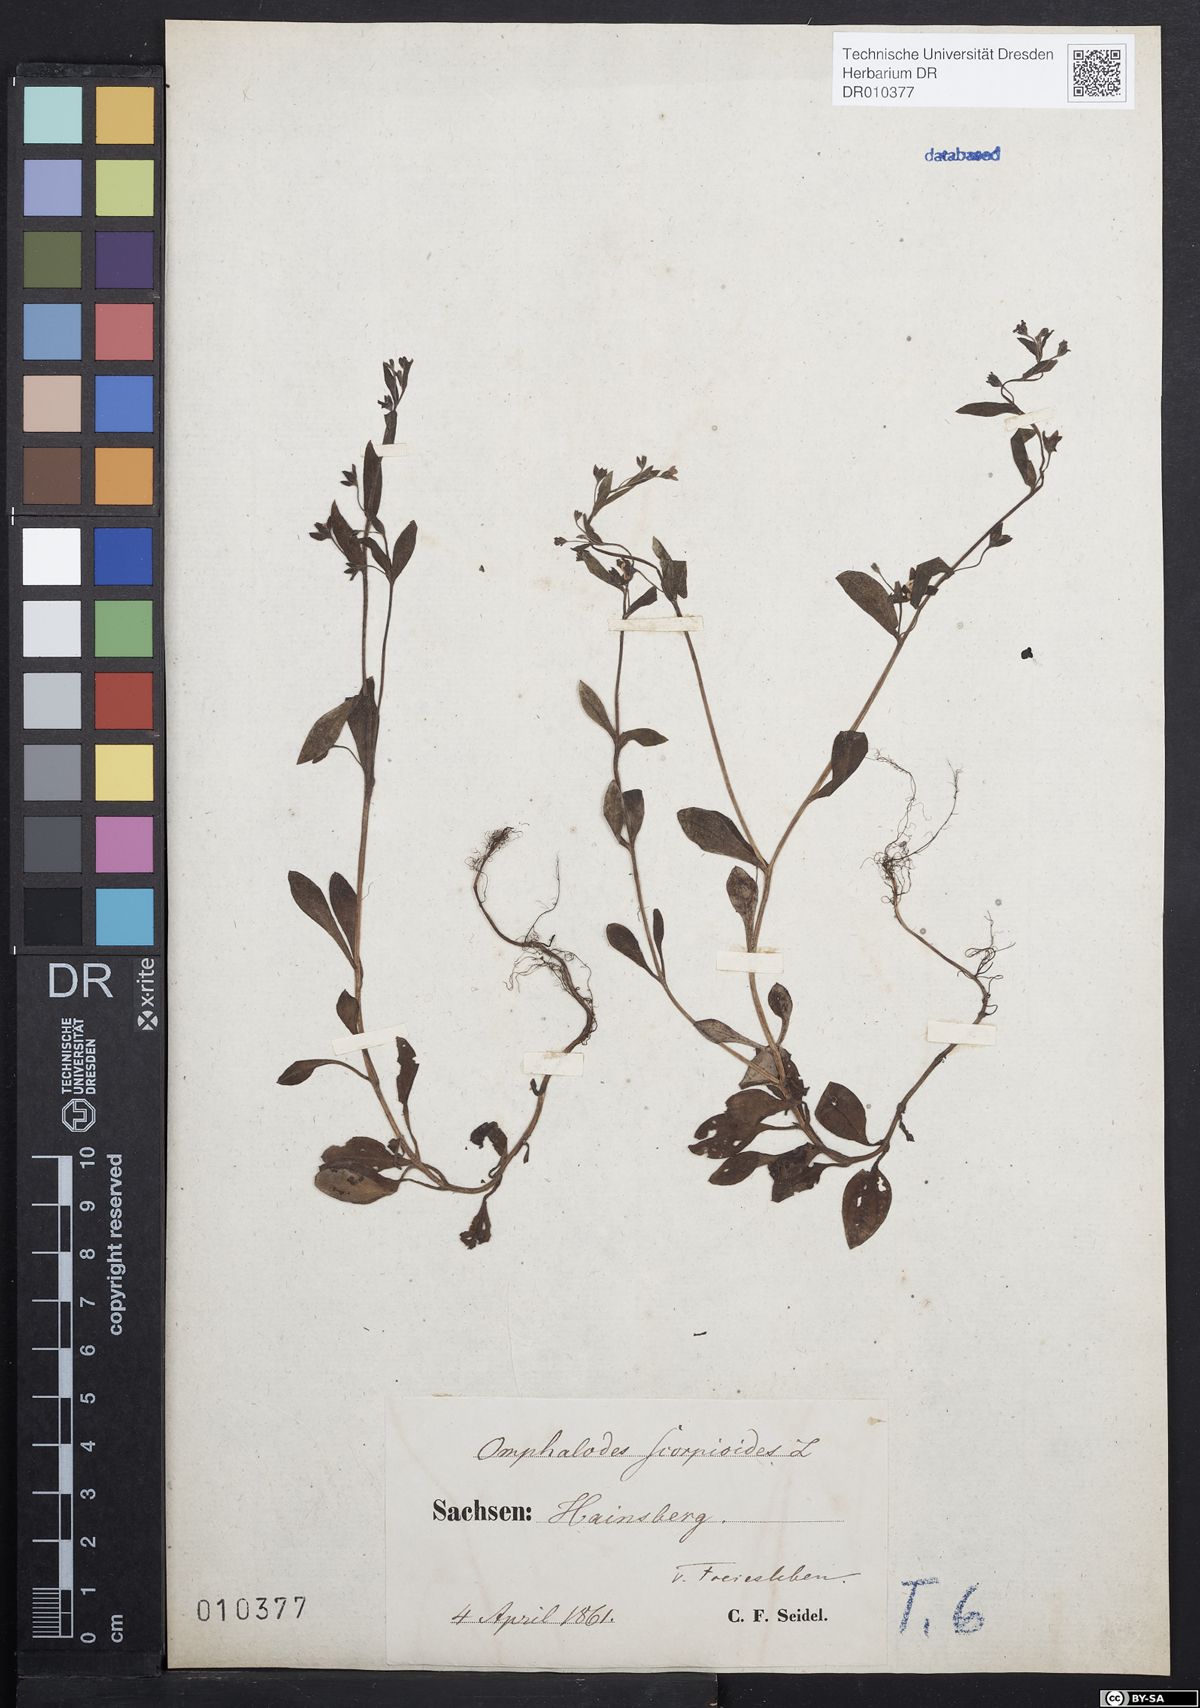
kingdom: Plantae
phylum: Tracheophyta
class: Magnoliopsida
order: Boraginales
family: Boraginaceae
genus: Memoremea
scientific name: Memoremea scorpioides
